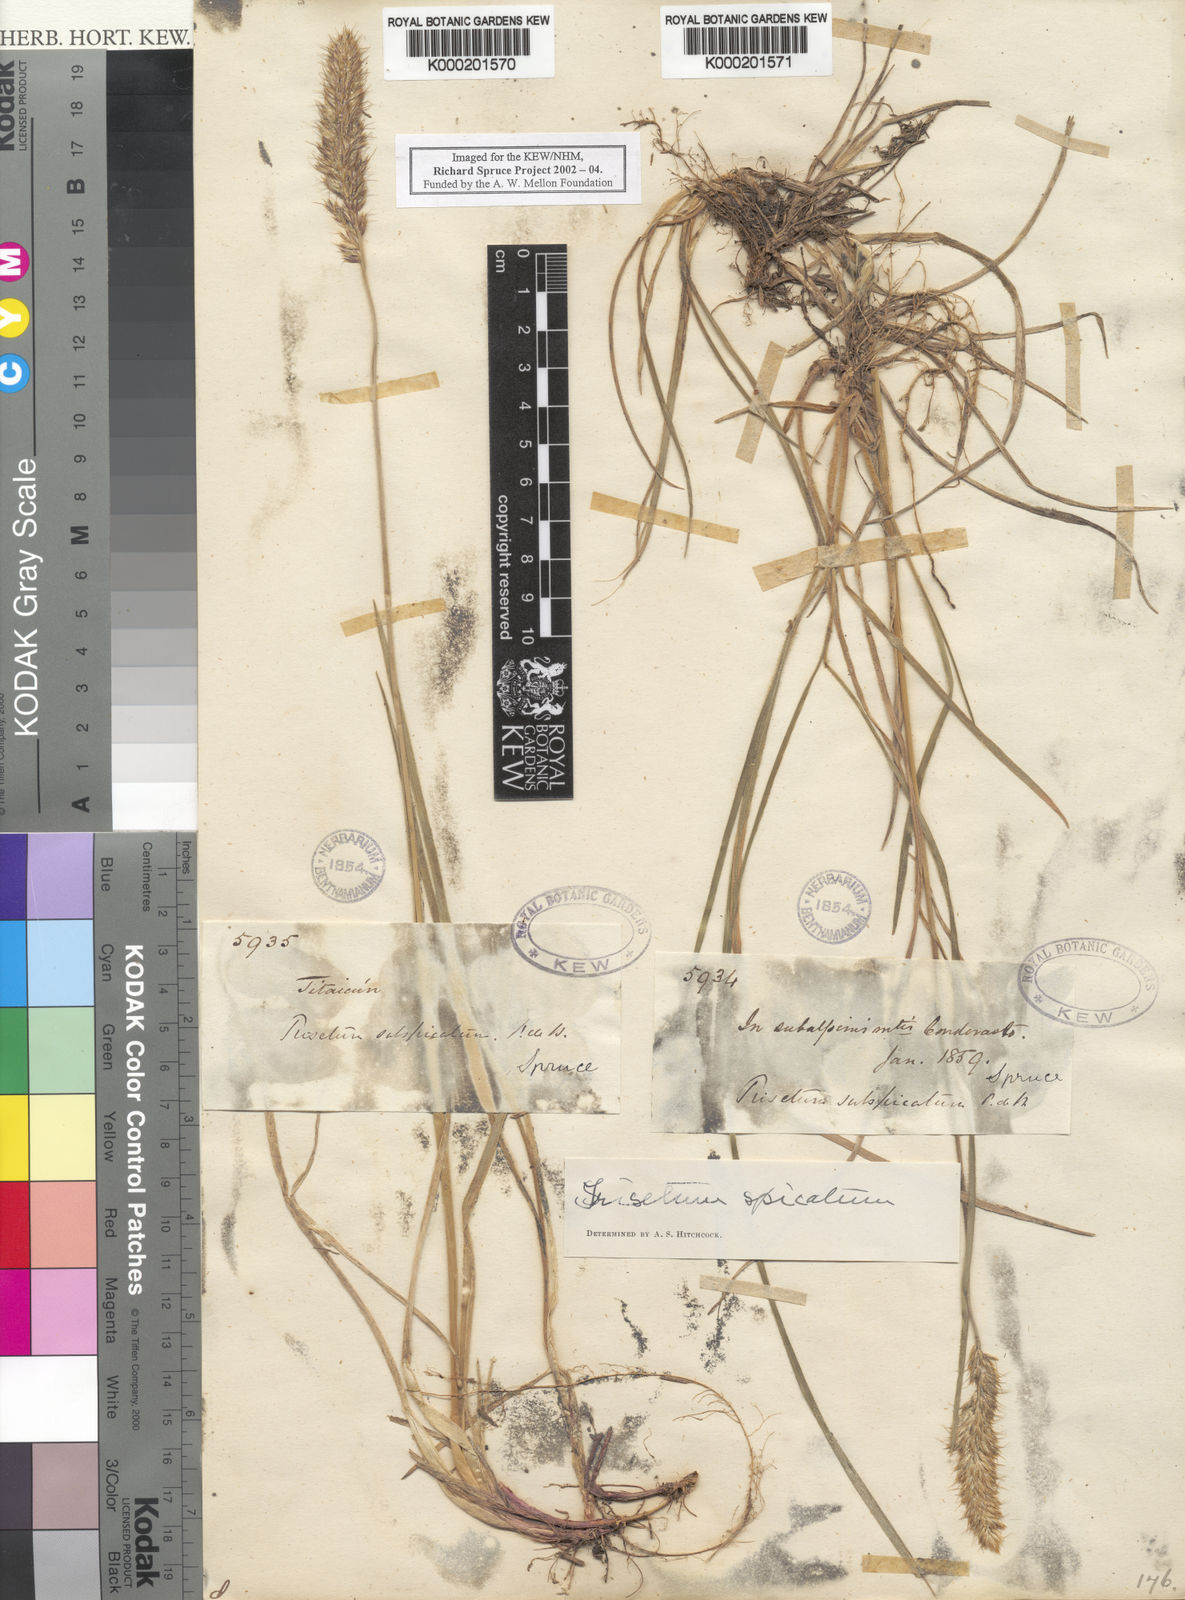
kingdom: Plantae
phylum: Tracheophyta
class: Liliopsida
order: Poales
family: Poaceae
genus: Koeleria
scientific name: Koeleria spicata
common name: Mountain trisetum
